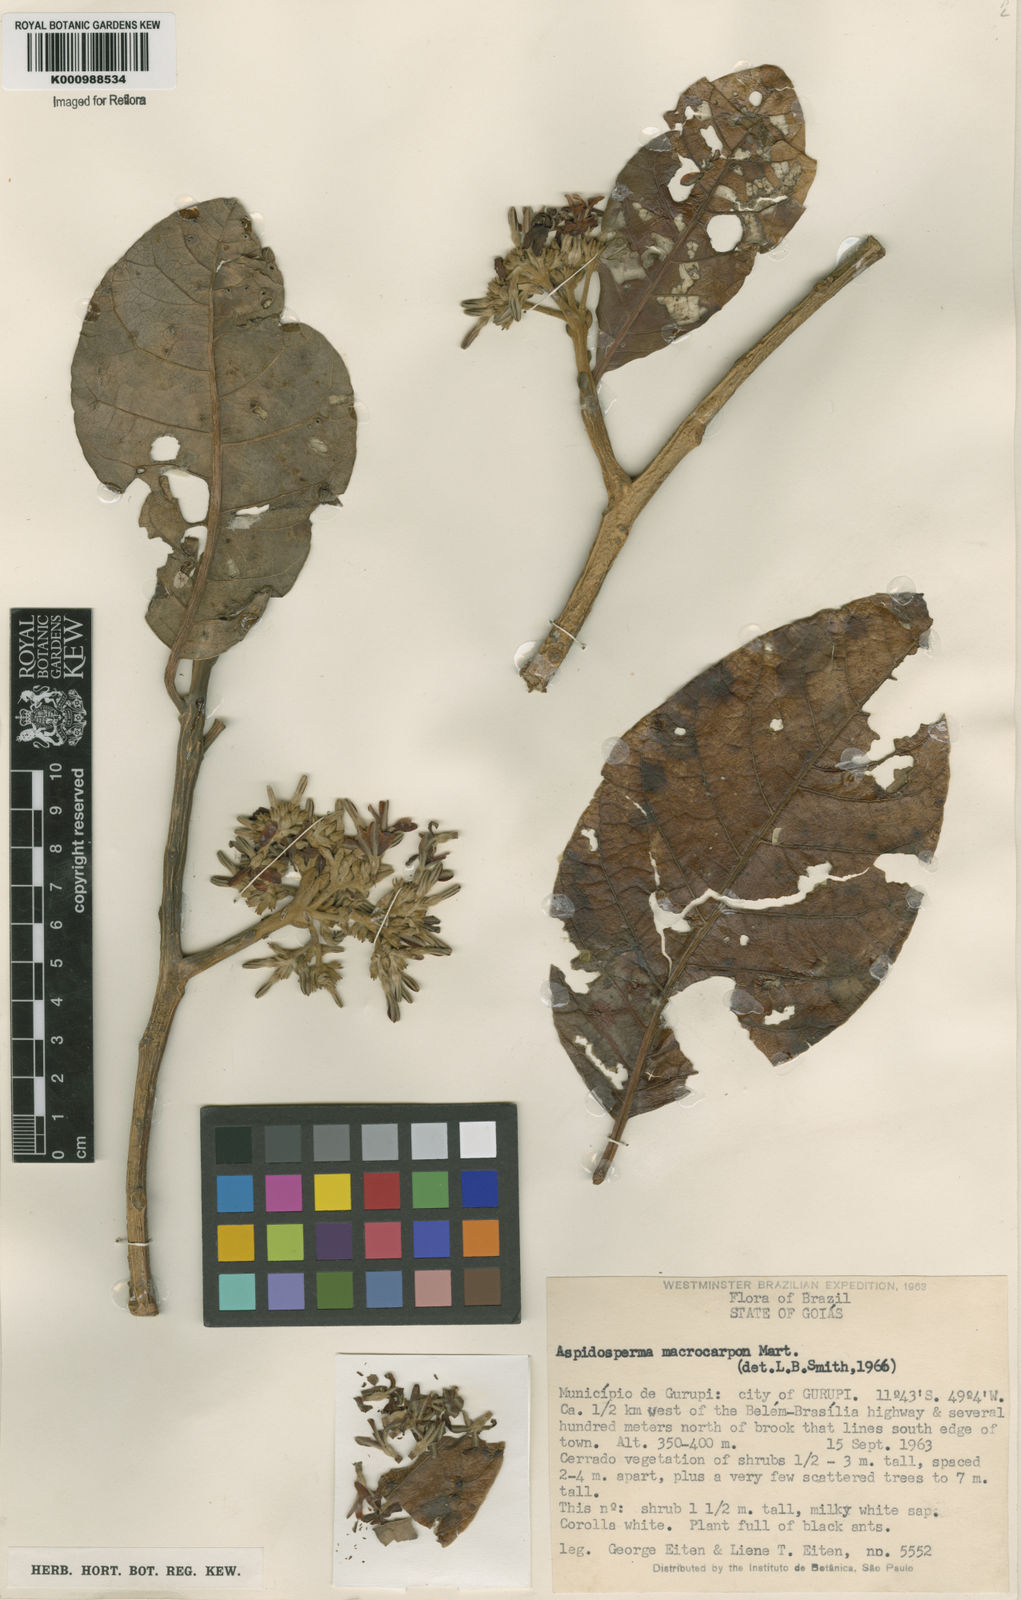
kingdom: Plantae
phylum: Tracheophyta
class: Magnoliopsida
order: Gentianales
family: Apocynaceae
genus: Aspidosperma
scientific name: Aspidosperma macrocarpon
